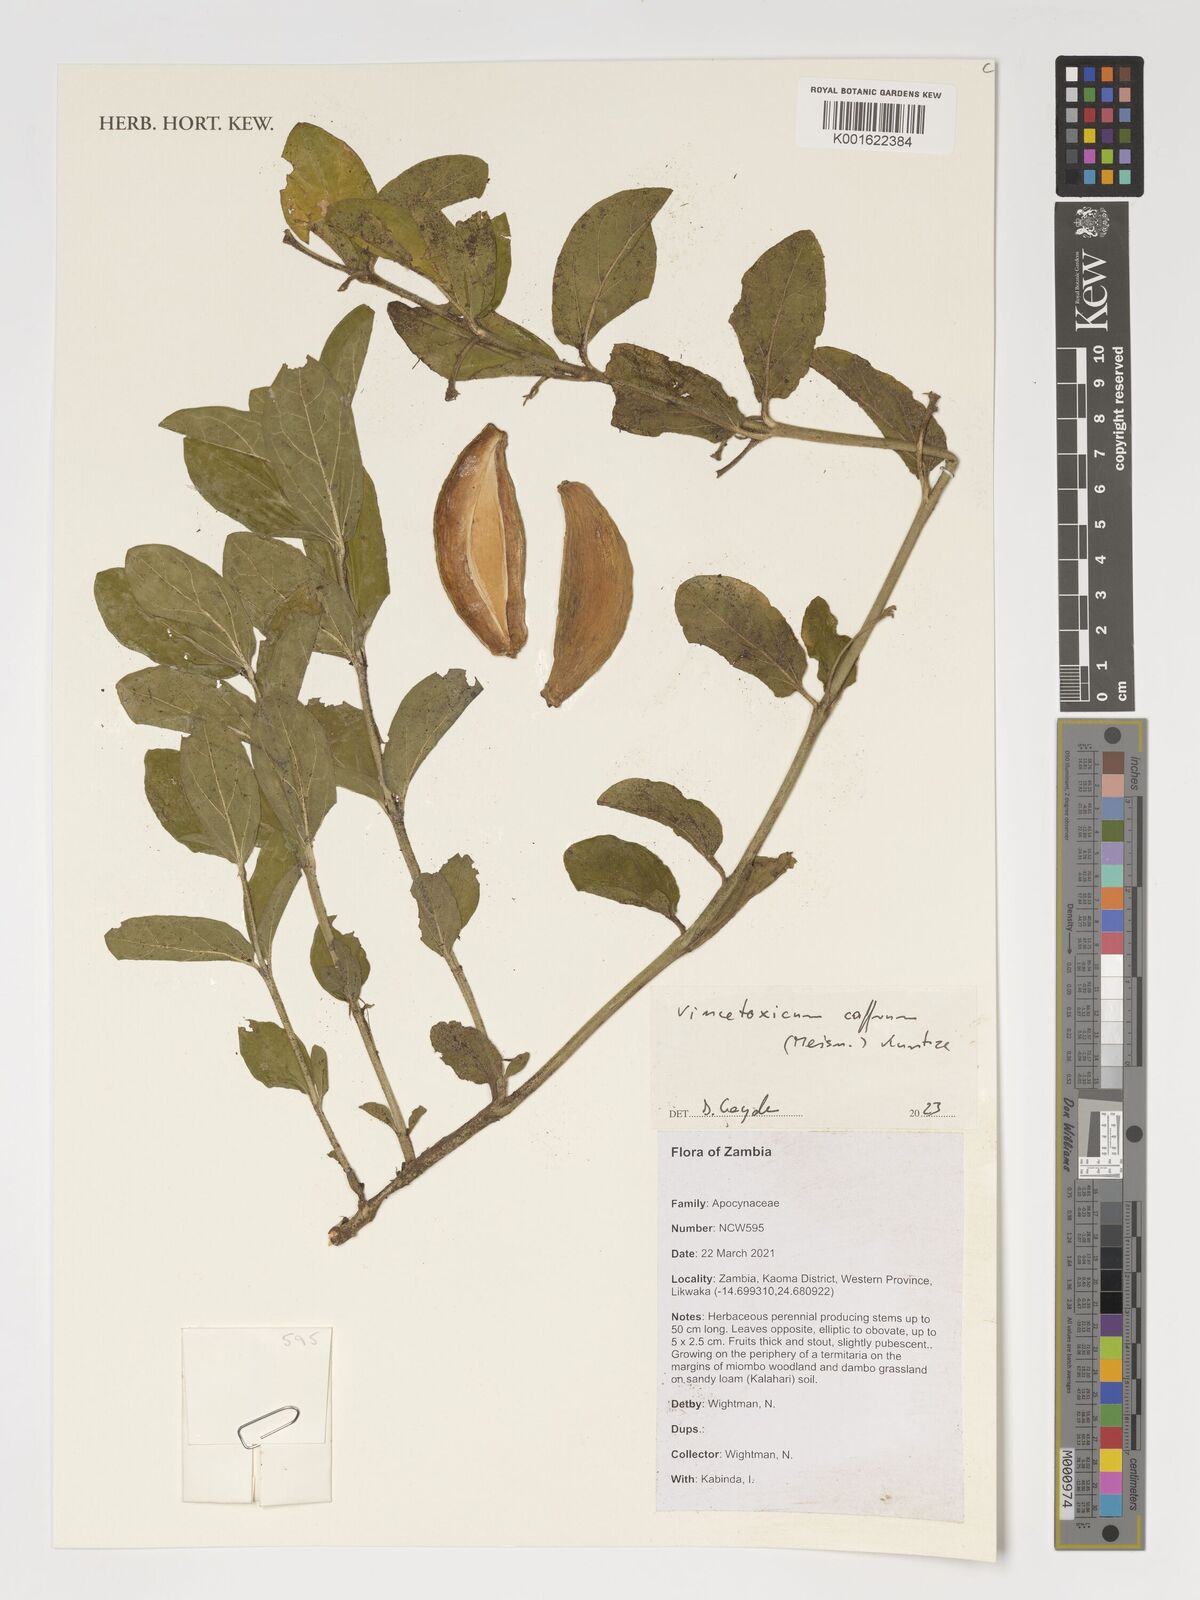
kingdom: Plantae
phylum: Tracheophyta
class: Magnoliopsida
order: Gentianales
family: Apocynaceae
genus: Vincetoxicum
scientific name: Vincetoxicum caffrum
